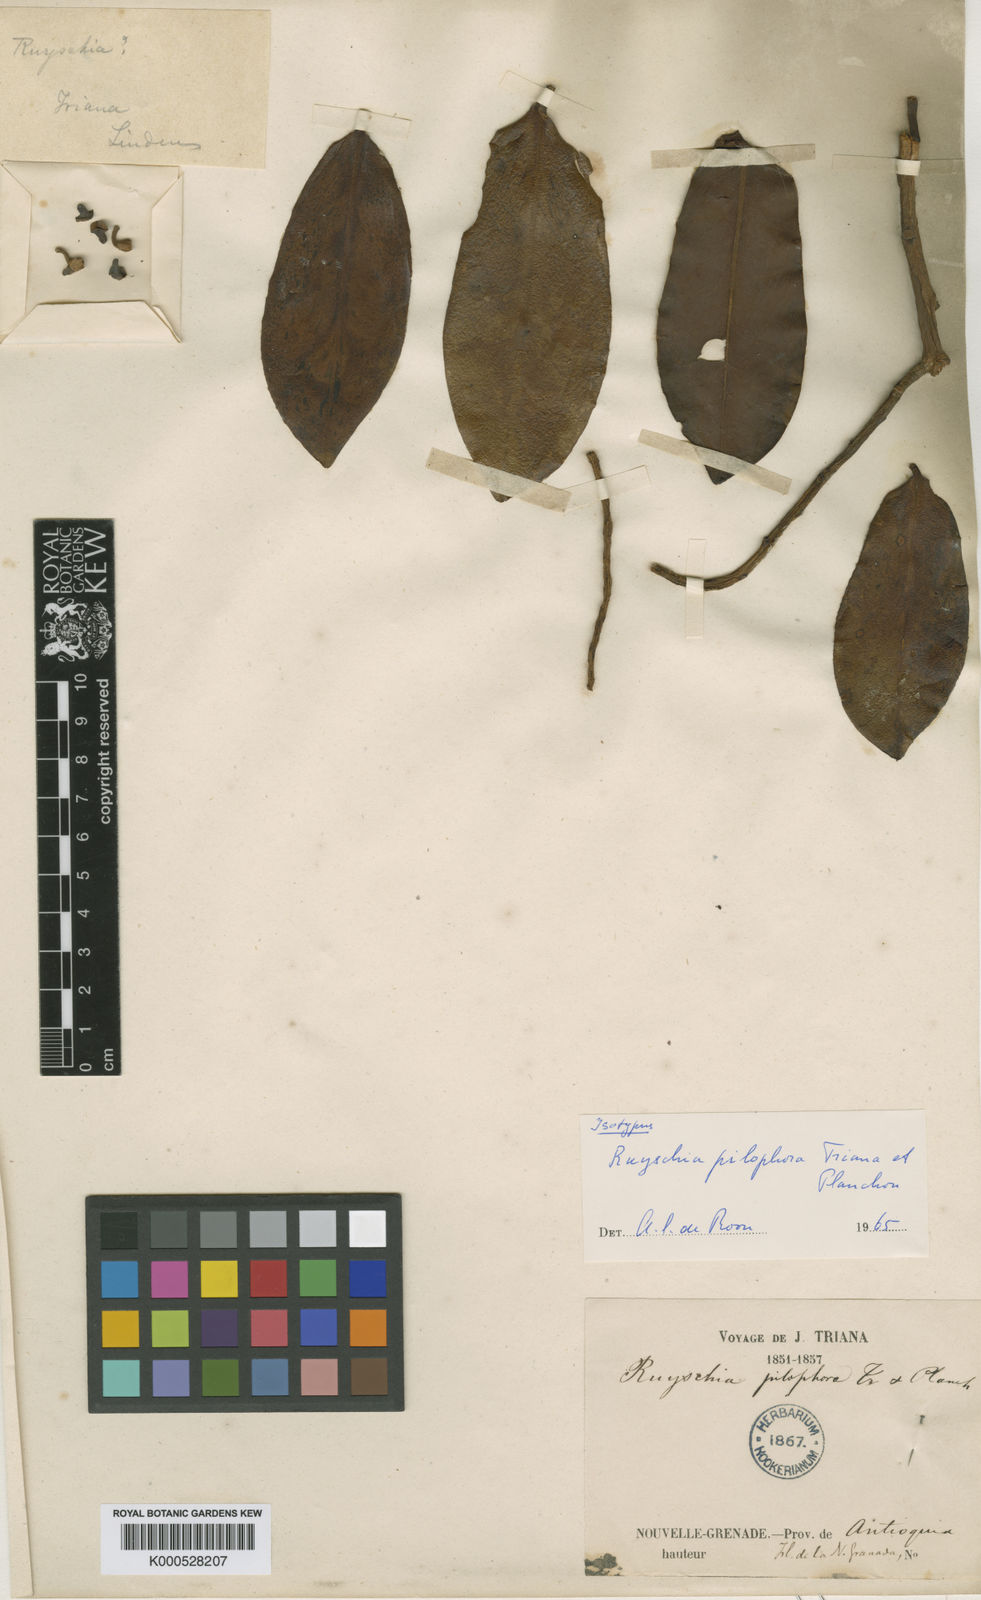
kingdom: Plantae
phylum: Tracheophyta
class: Magnoliopsida
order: Ericales
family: Marcgraviaceae
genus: Ruyschia
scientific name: Ruyschia pilophora
